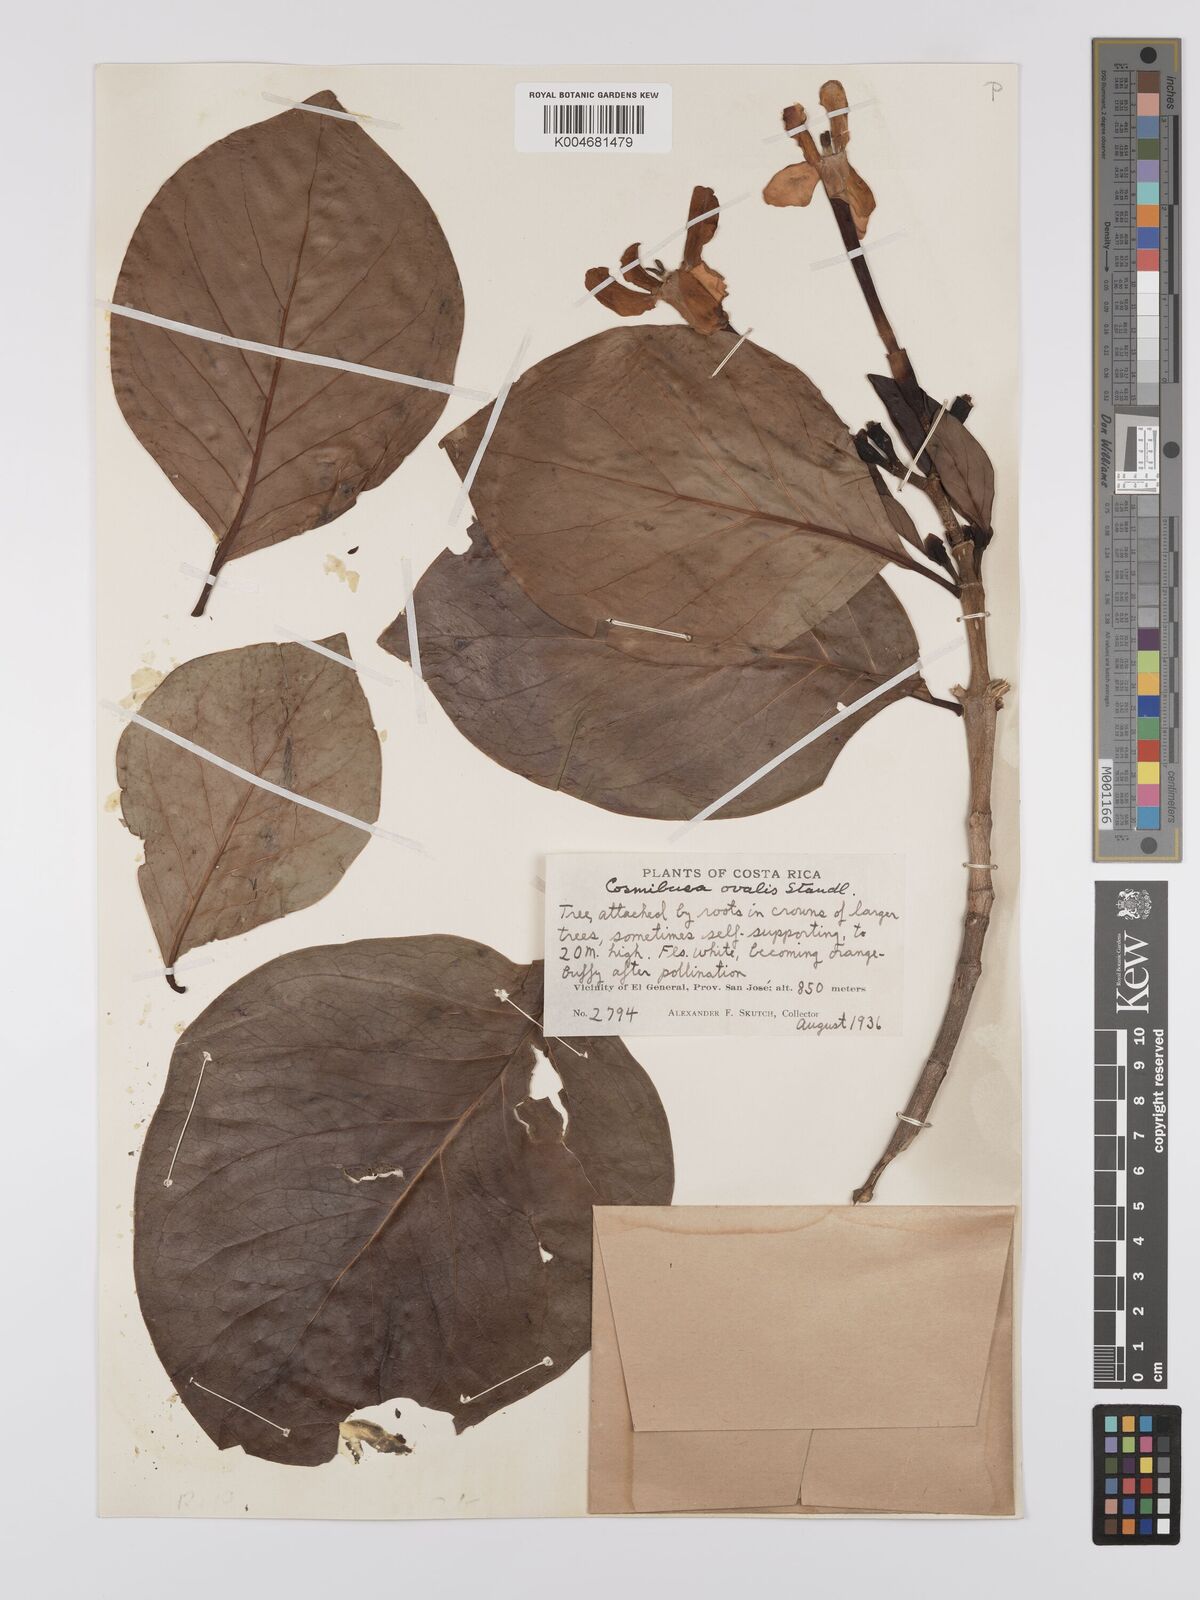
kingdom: Plantae
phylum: Tracheophyta
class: Magnoliopsida
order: Gentianales
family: Rubiaceae
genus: Cosmibuena
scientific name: Cosmibuena grandiflora
